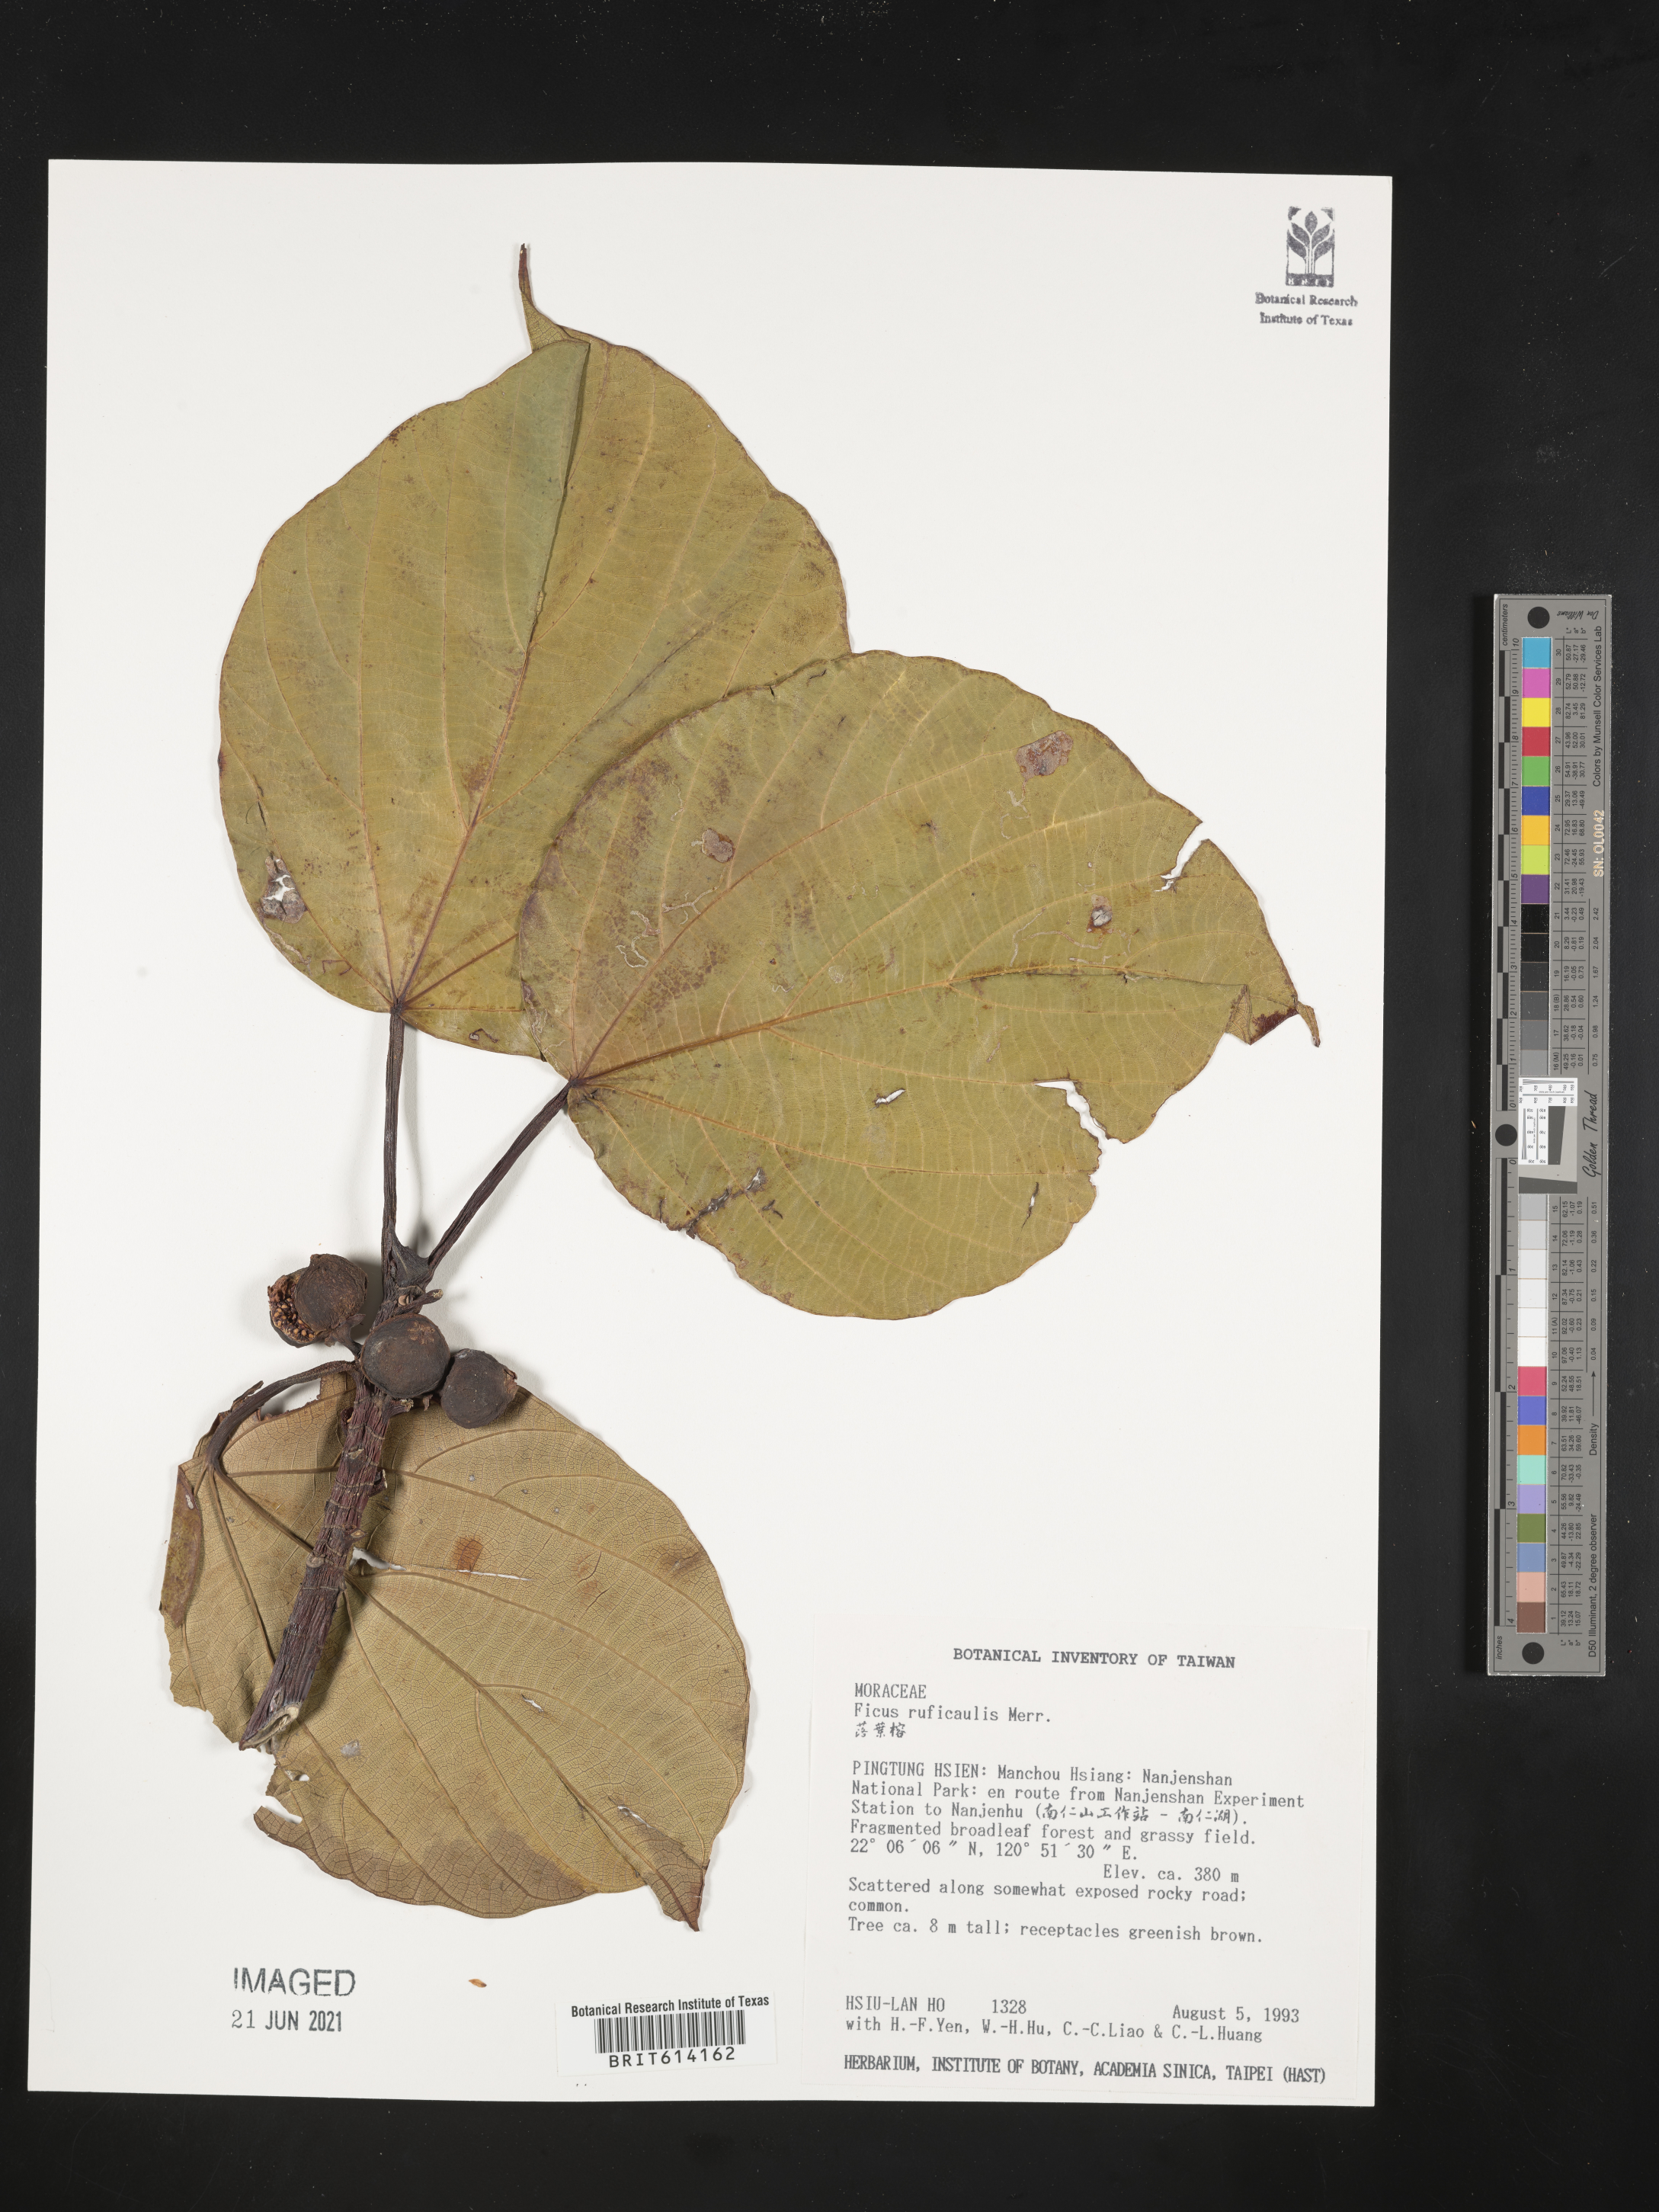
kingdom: Plantae
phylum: Tracheophyta
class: Magnoliopsida
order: Rosales
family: Moraceae
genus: Ficus
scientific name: Ficus ruficaulis
